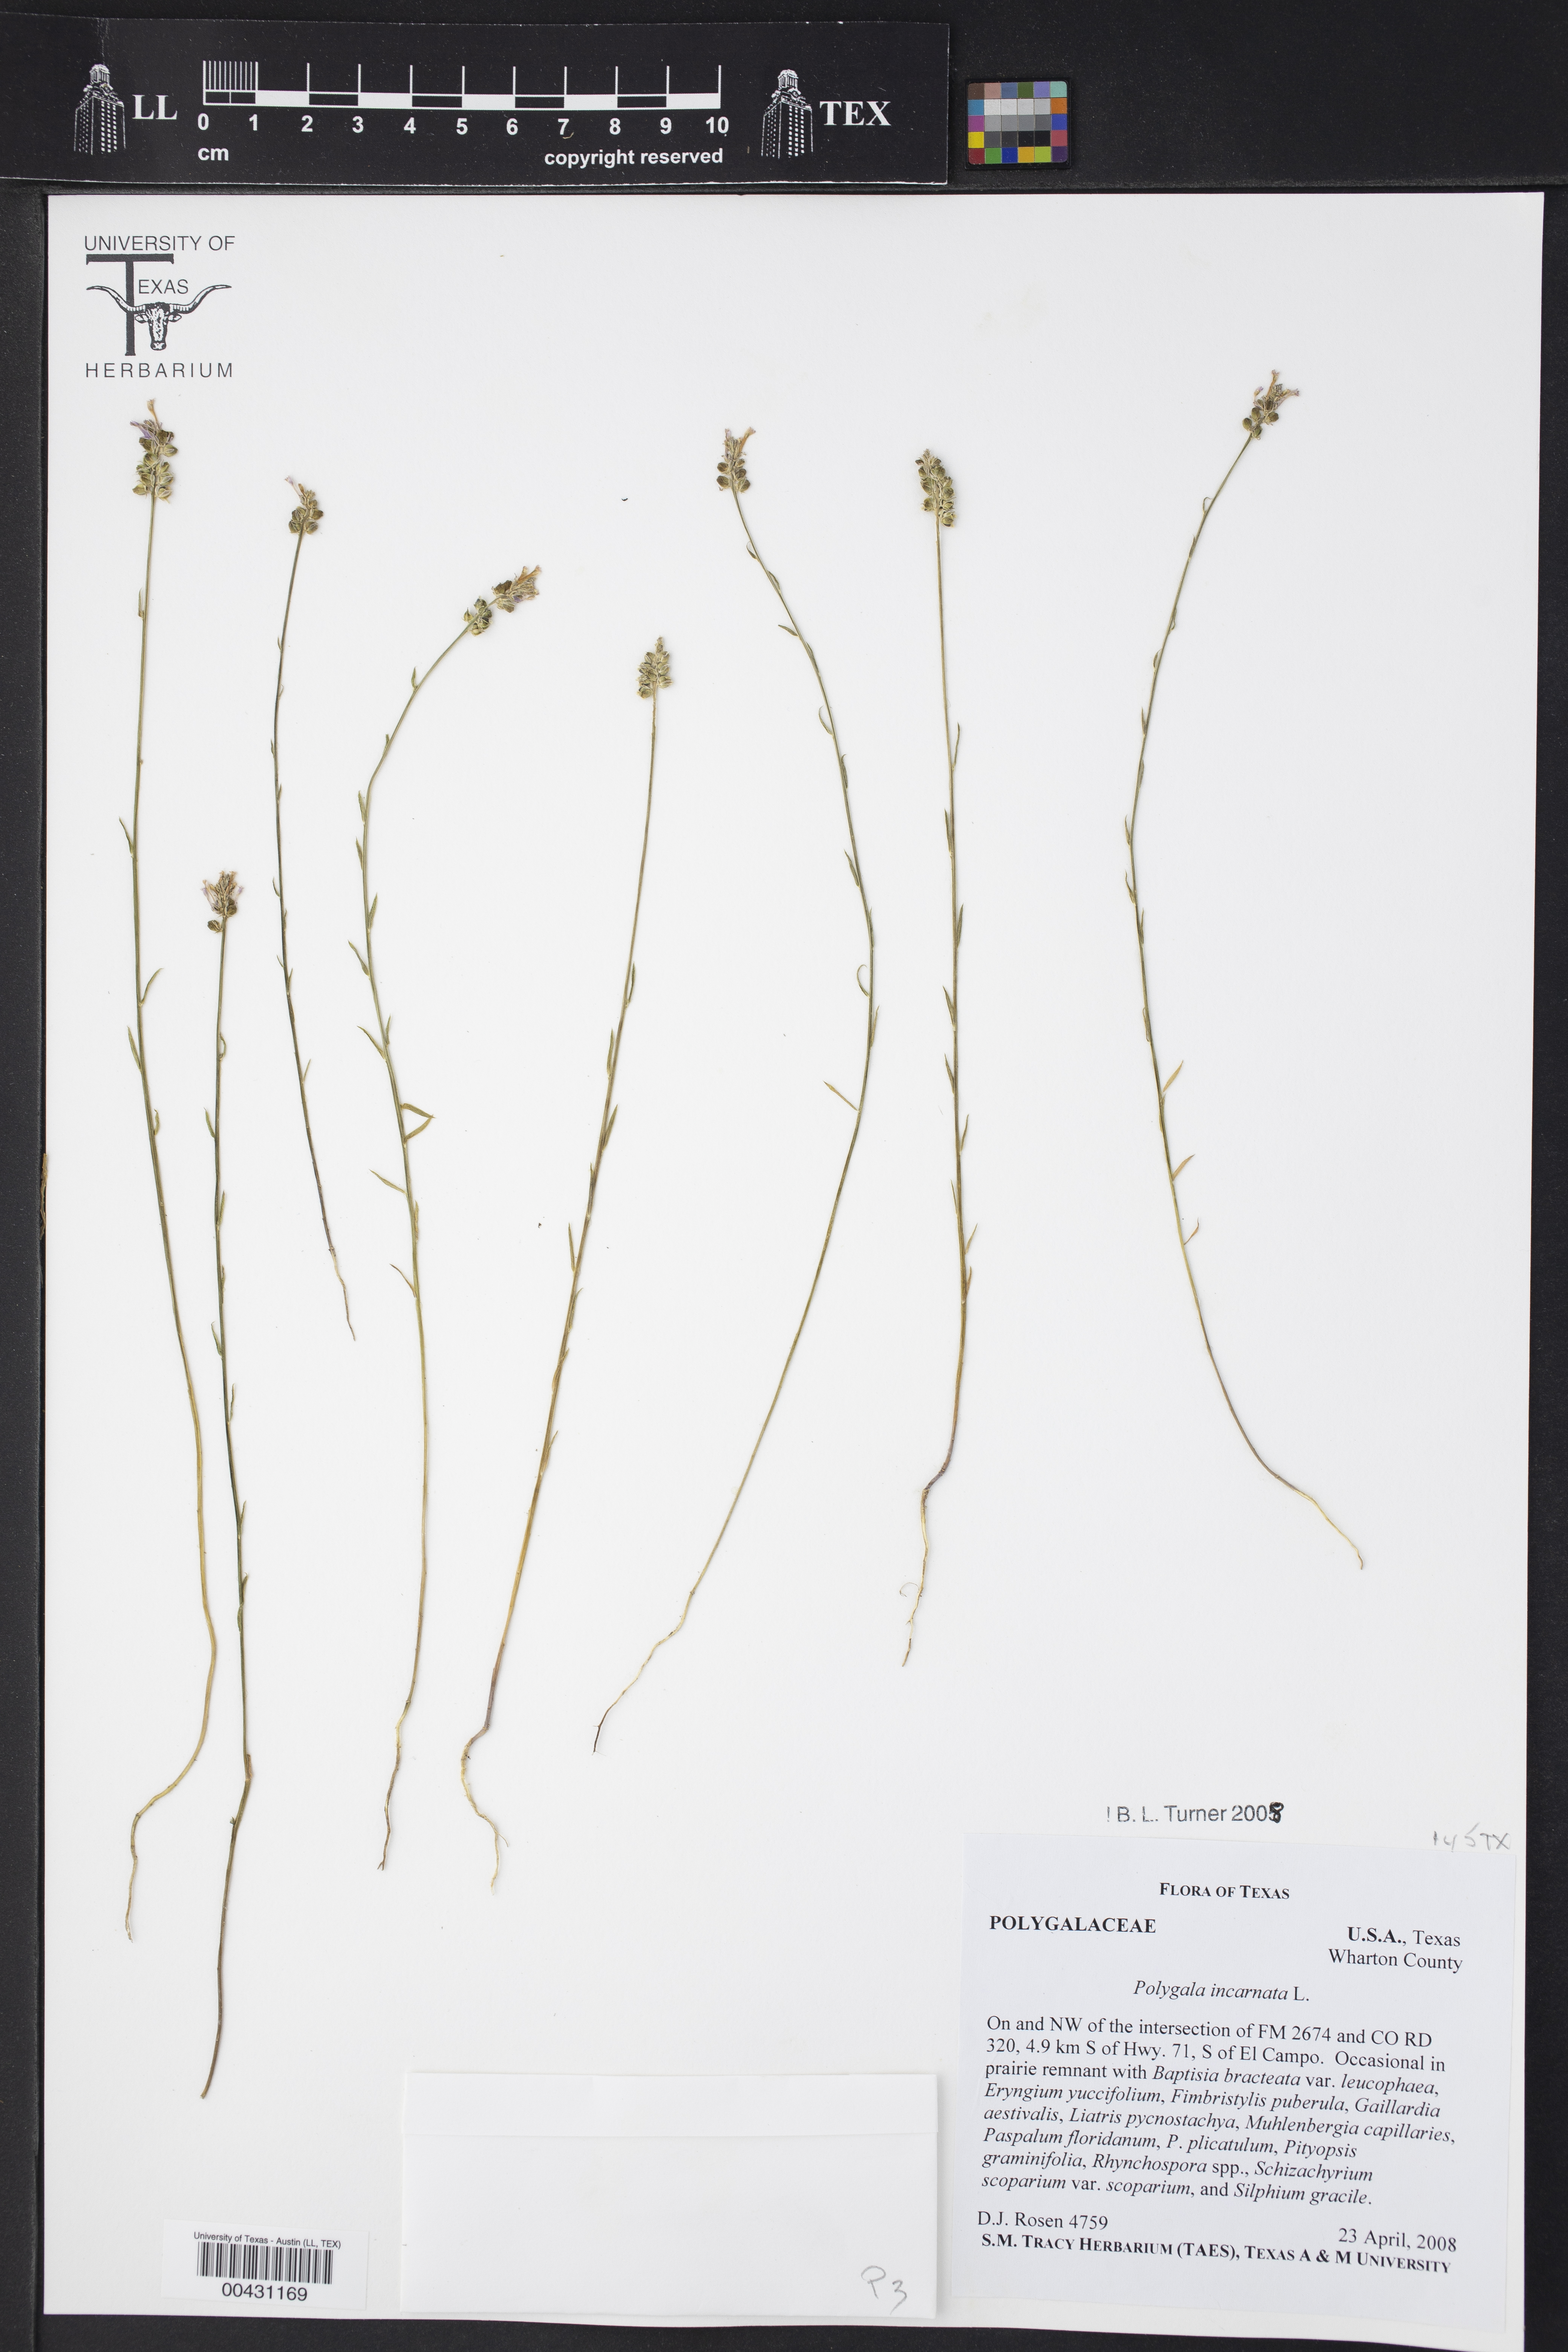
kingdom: Plantae
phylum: Tracheophyta
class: Magnoliopsida
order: Fabales
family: Polygalaceae
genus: Polygala
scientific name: Polygala incarnata
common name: Pink milkwort
